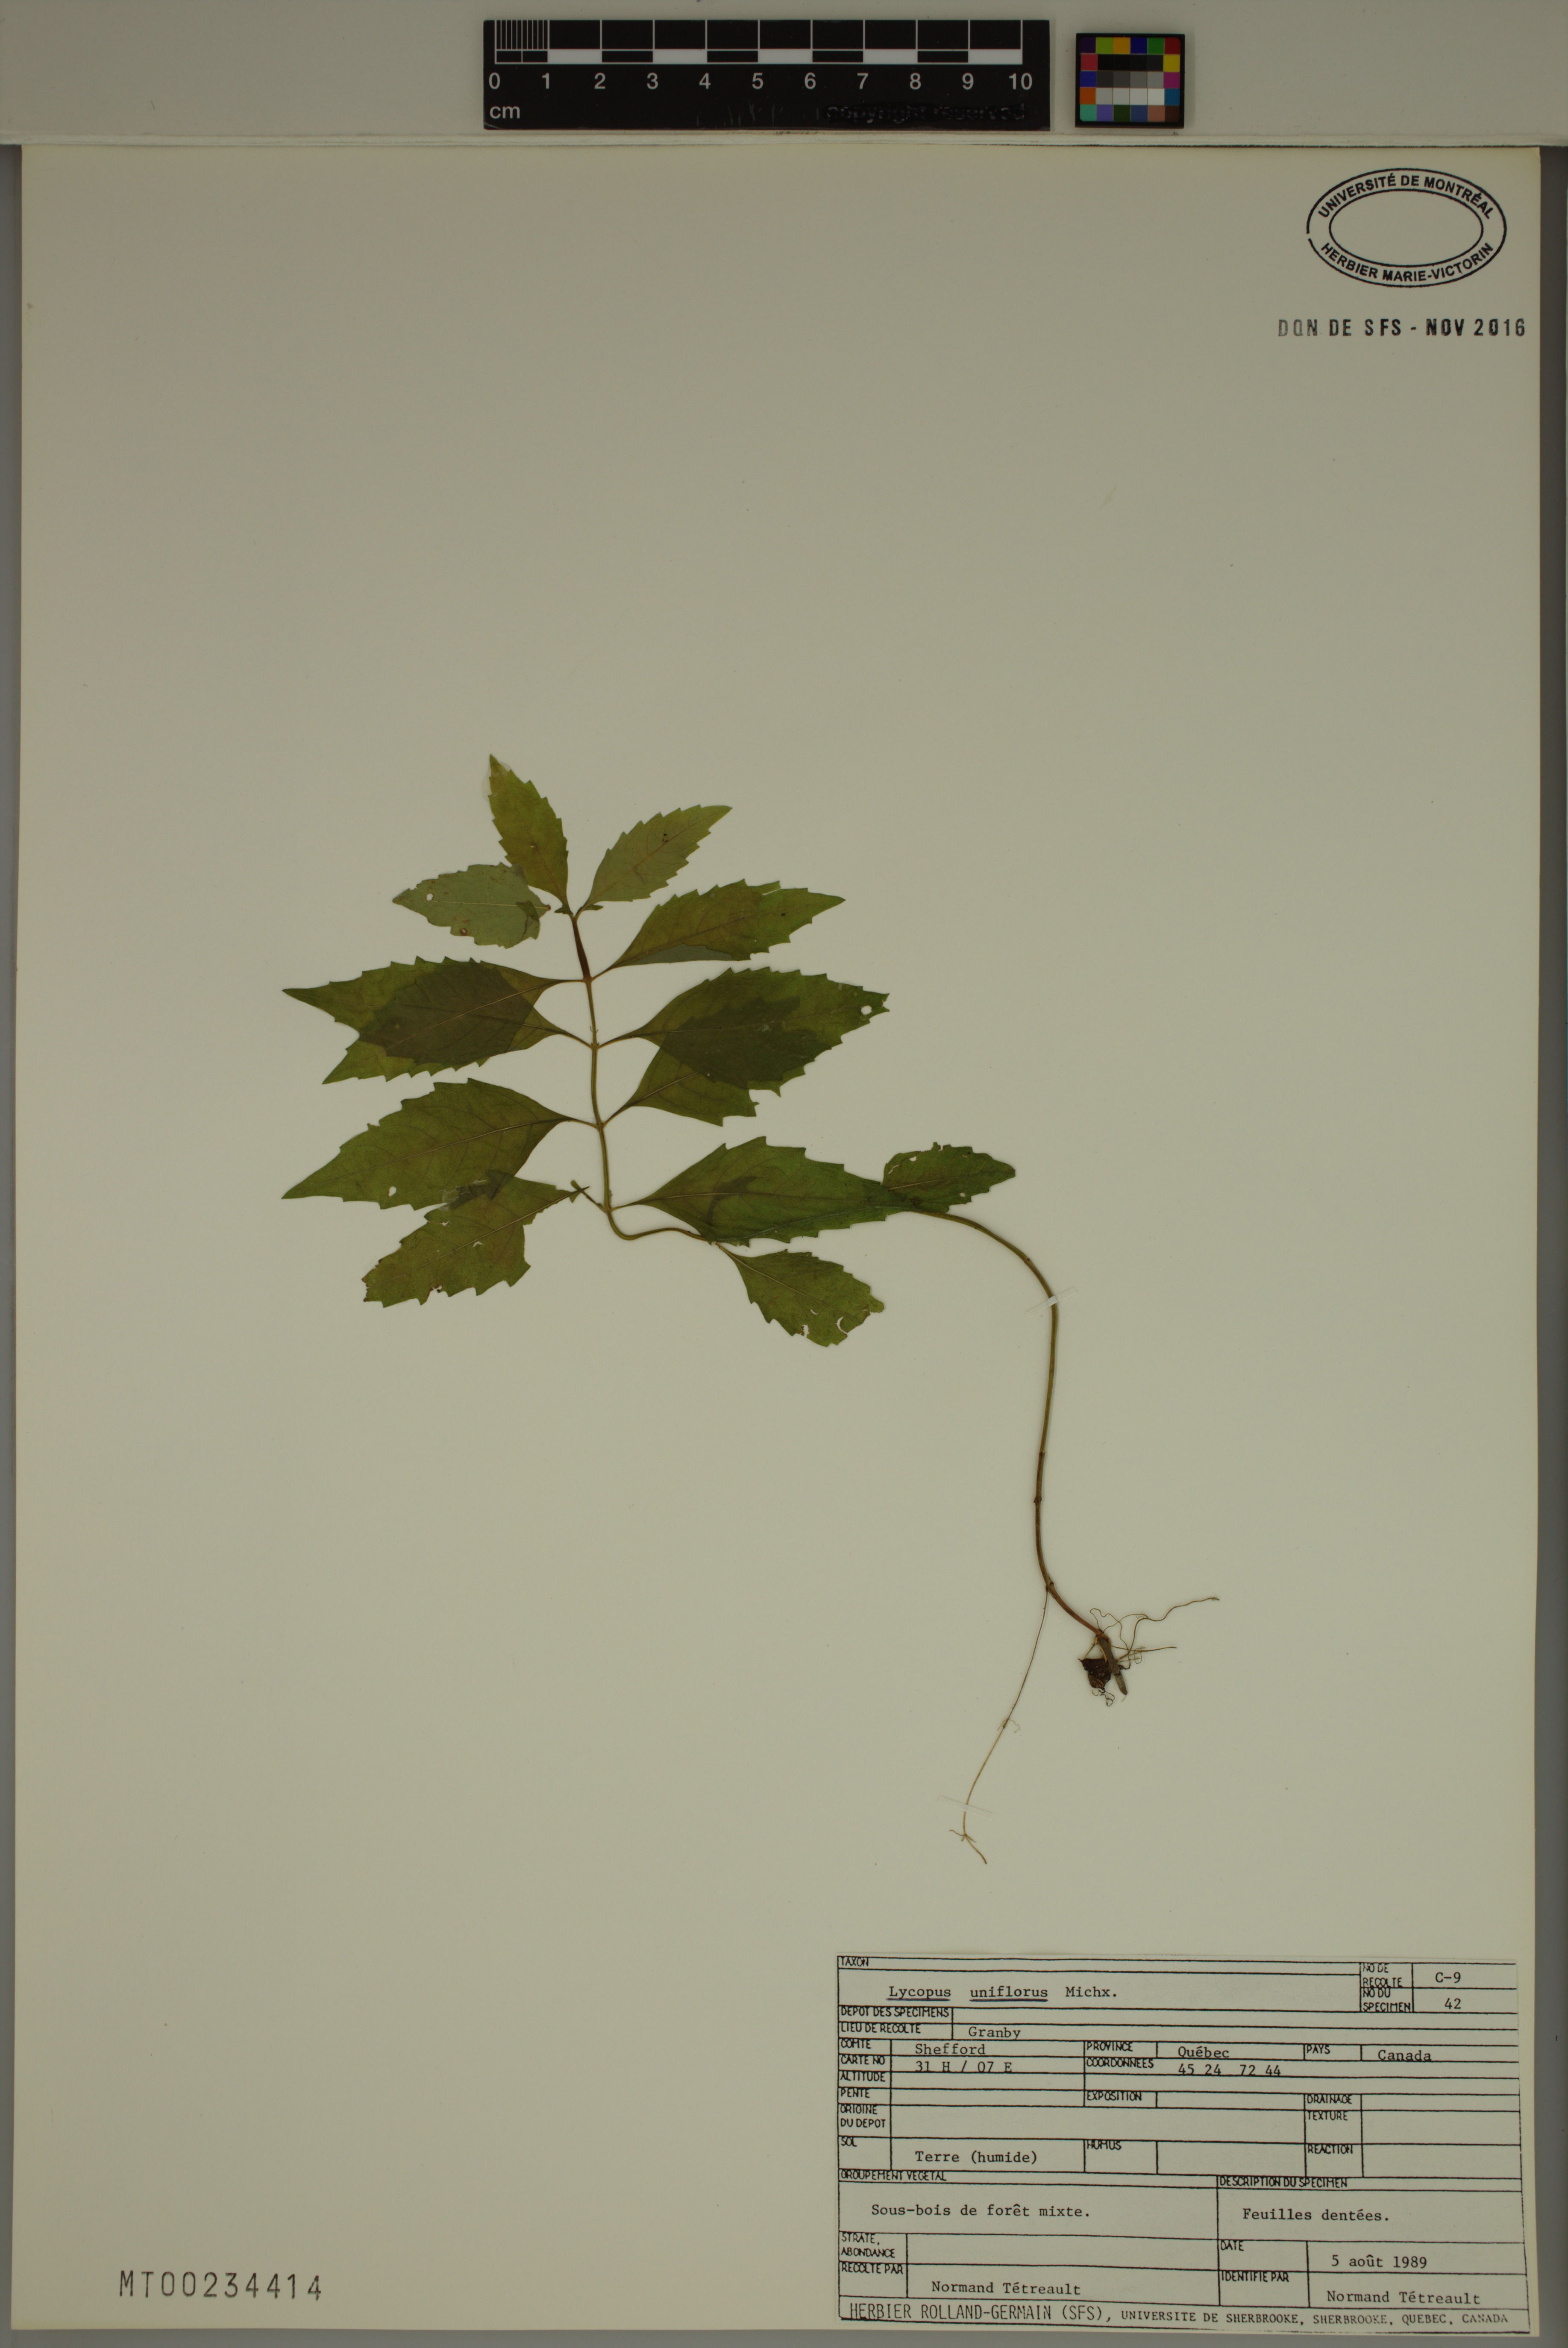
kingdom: Plantae
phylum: Tracheophyta
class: Magnoliopsida
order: Lamiales
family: Lamiaceae
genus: Lycopus
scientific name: Lycopus uniflorus
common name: Northern bugleweed
